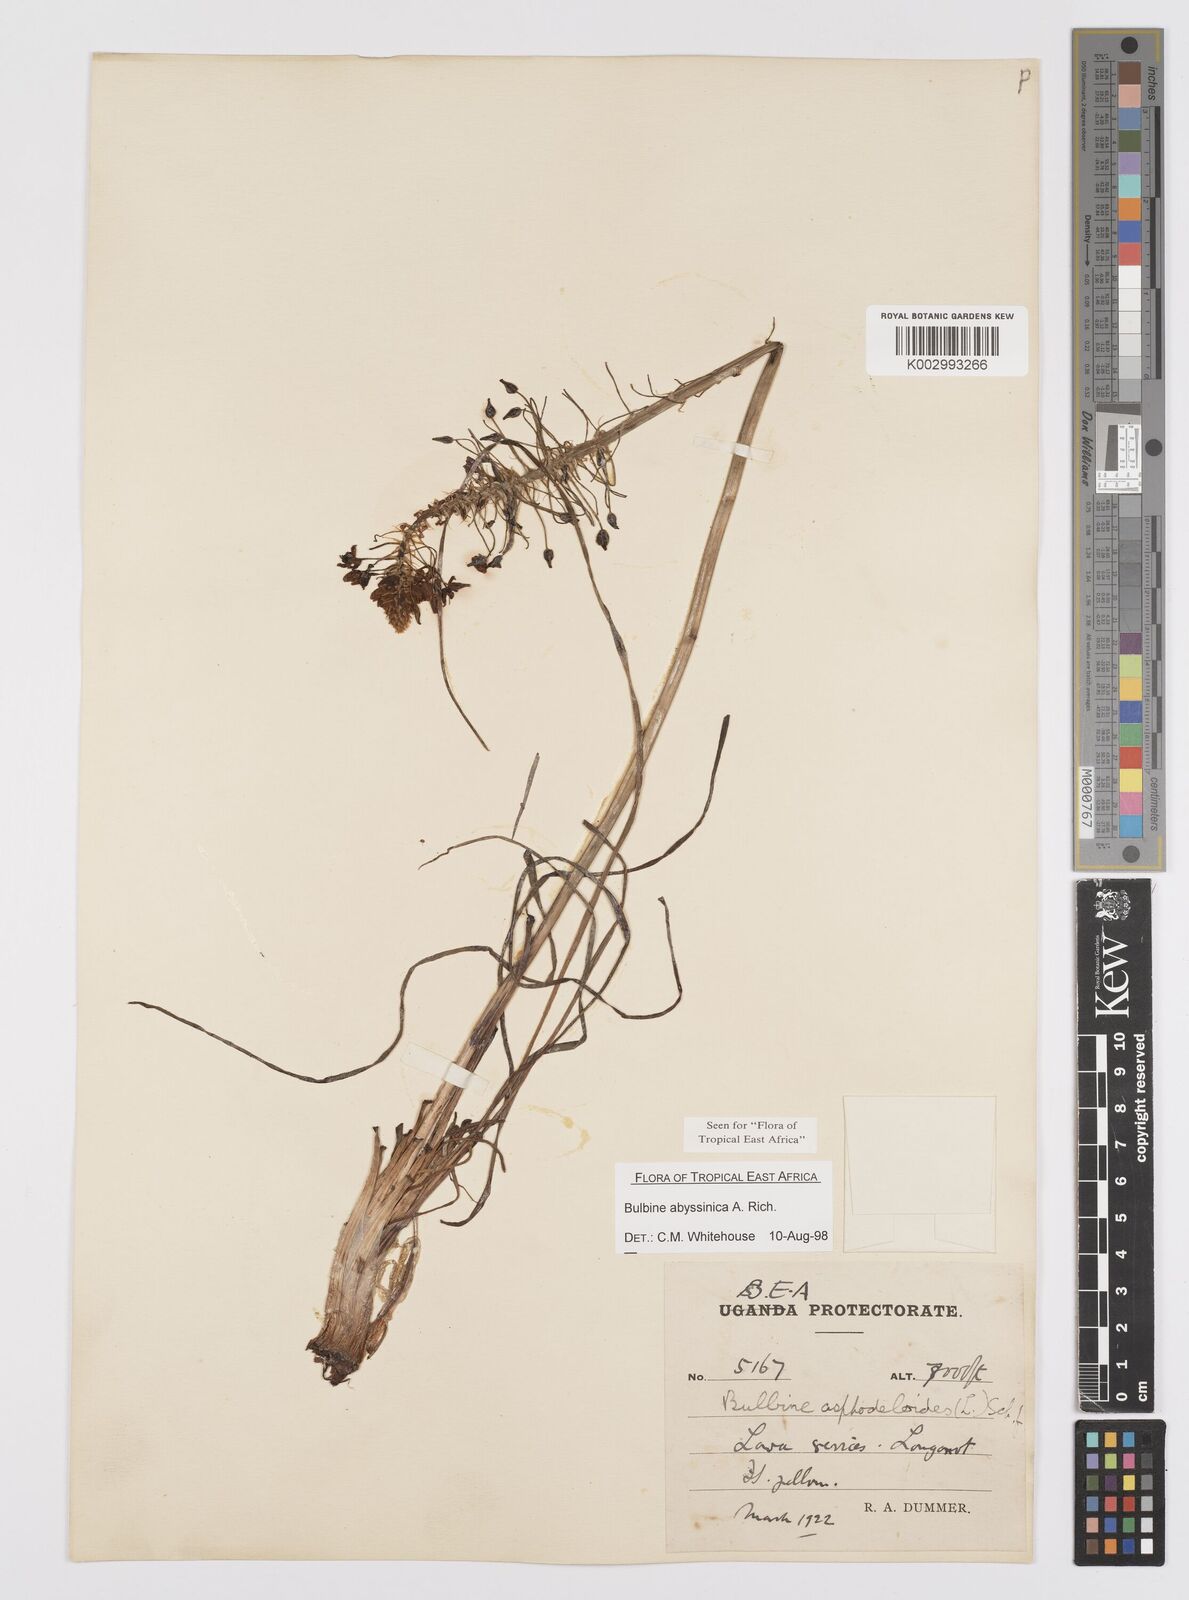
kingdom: Plantae
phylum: Tracheophyta
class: Liliopsida
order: Asparagales
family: Asphodelaceae
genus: Bulbine
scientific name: Bulbine abyssinica
